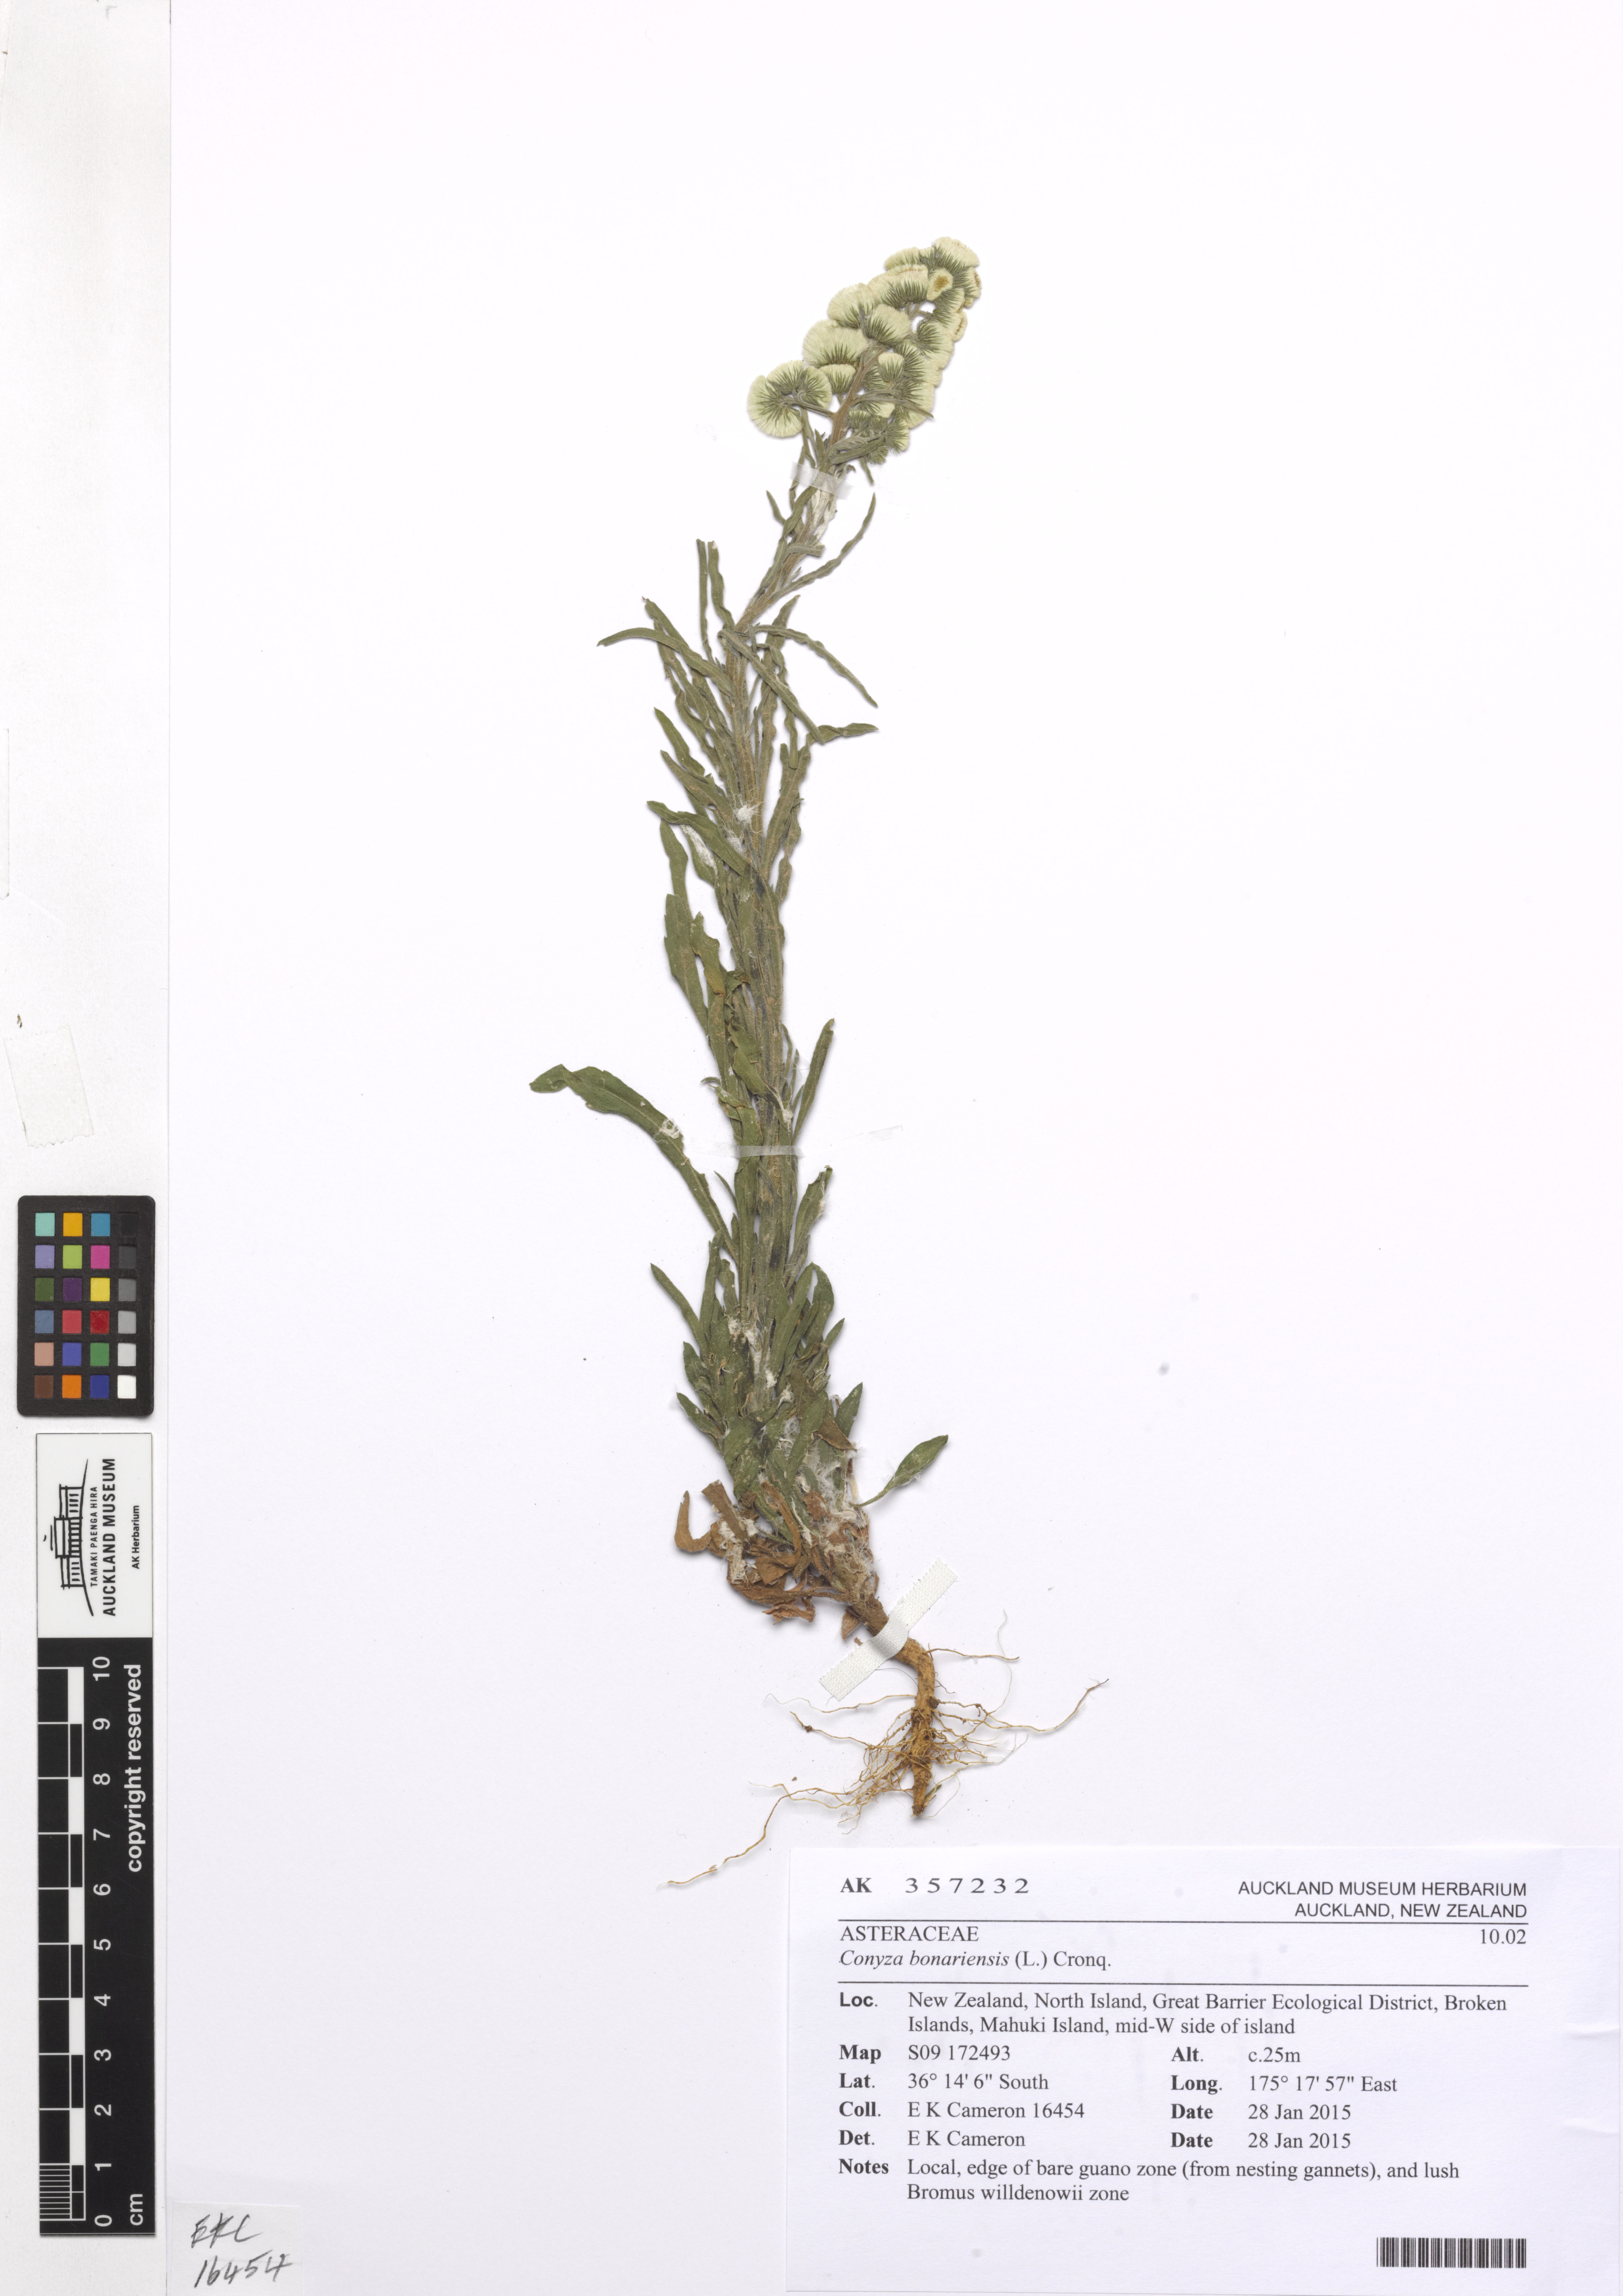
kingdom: Plantae
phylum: Tracheophyta
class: Magnoliopsida
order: Asterales
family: Asteraceae
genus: Erigeron
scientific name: Erigeron bonariensis
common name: Argentine fleabane
